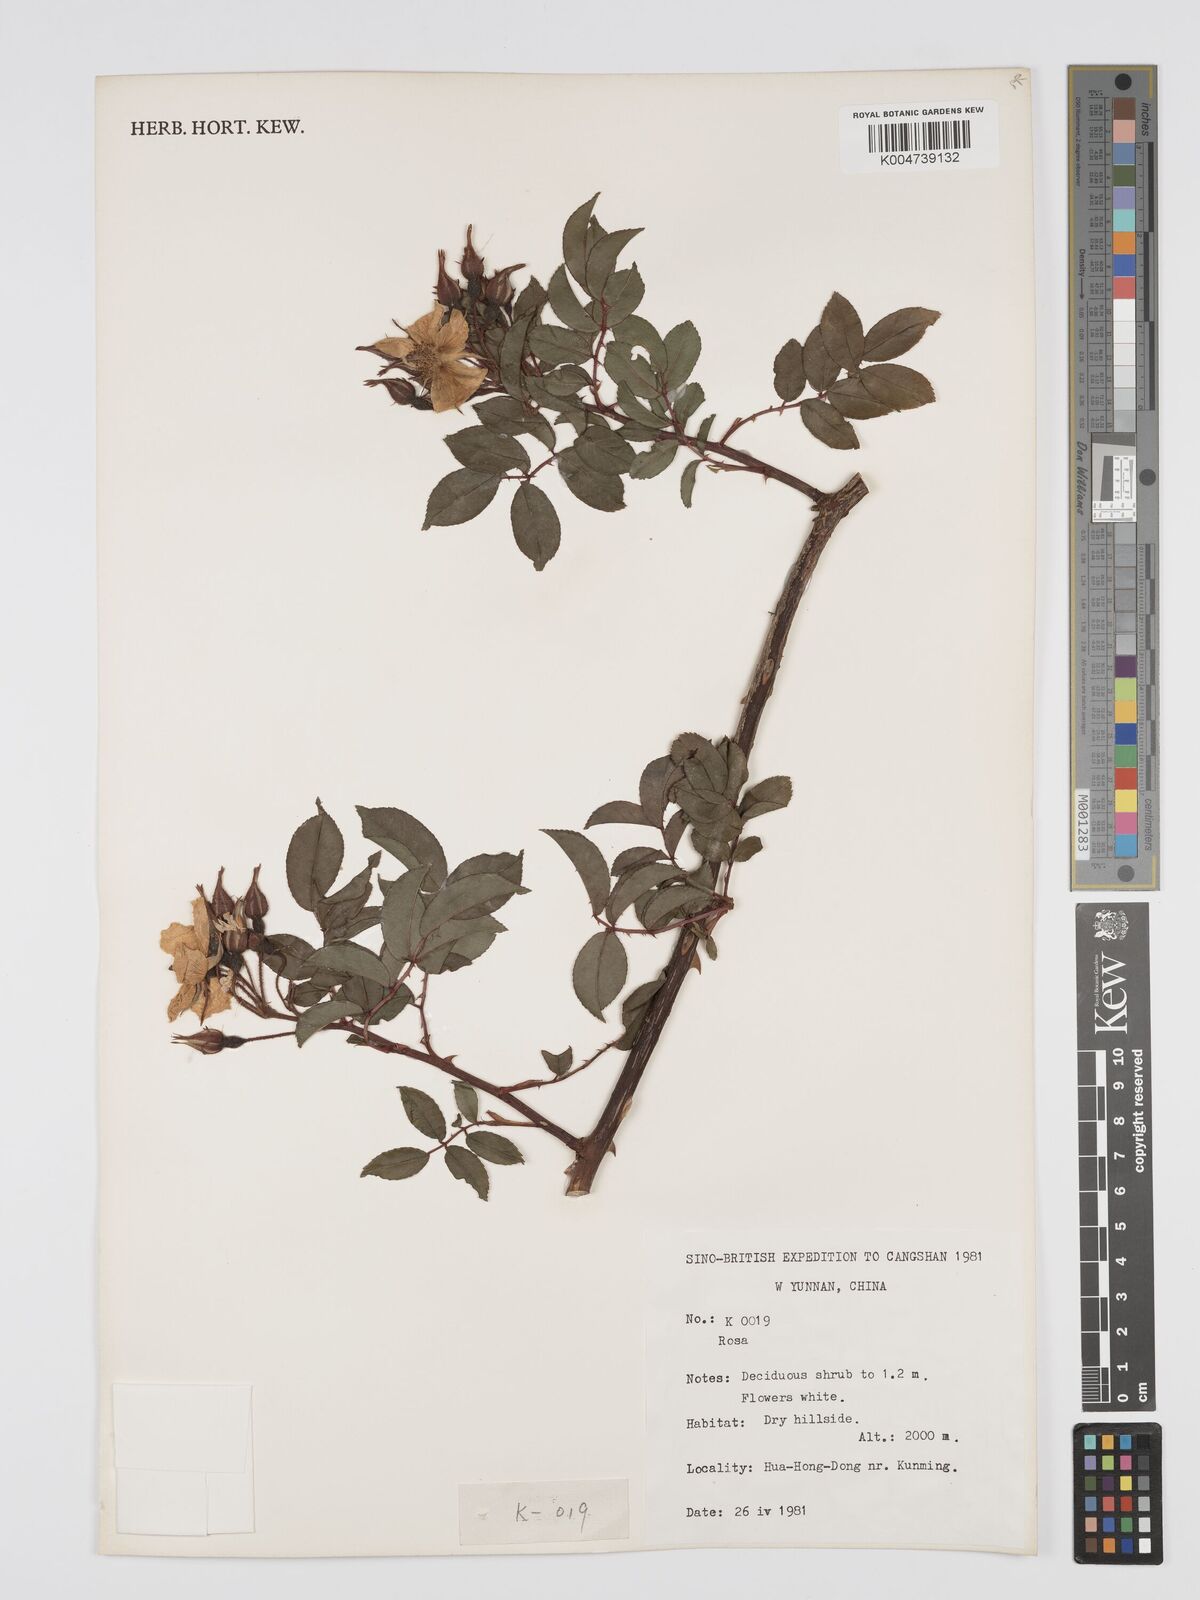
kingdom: Plantae
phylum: Tracheophyta
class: Magnoliopsida
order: Rosales
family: Rosaceae
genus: Rosa
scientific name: Rosa longicuspis
